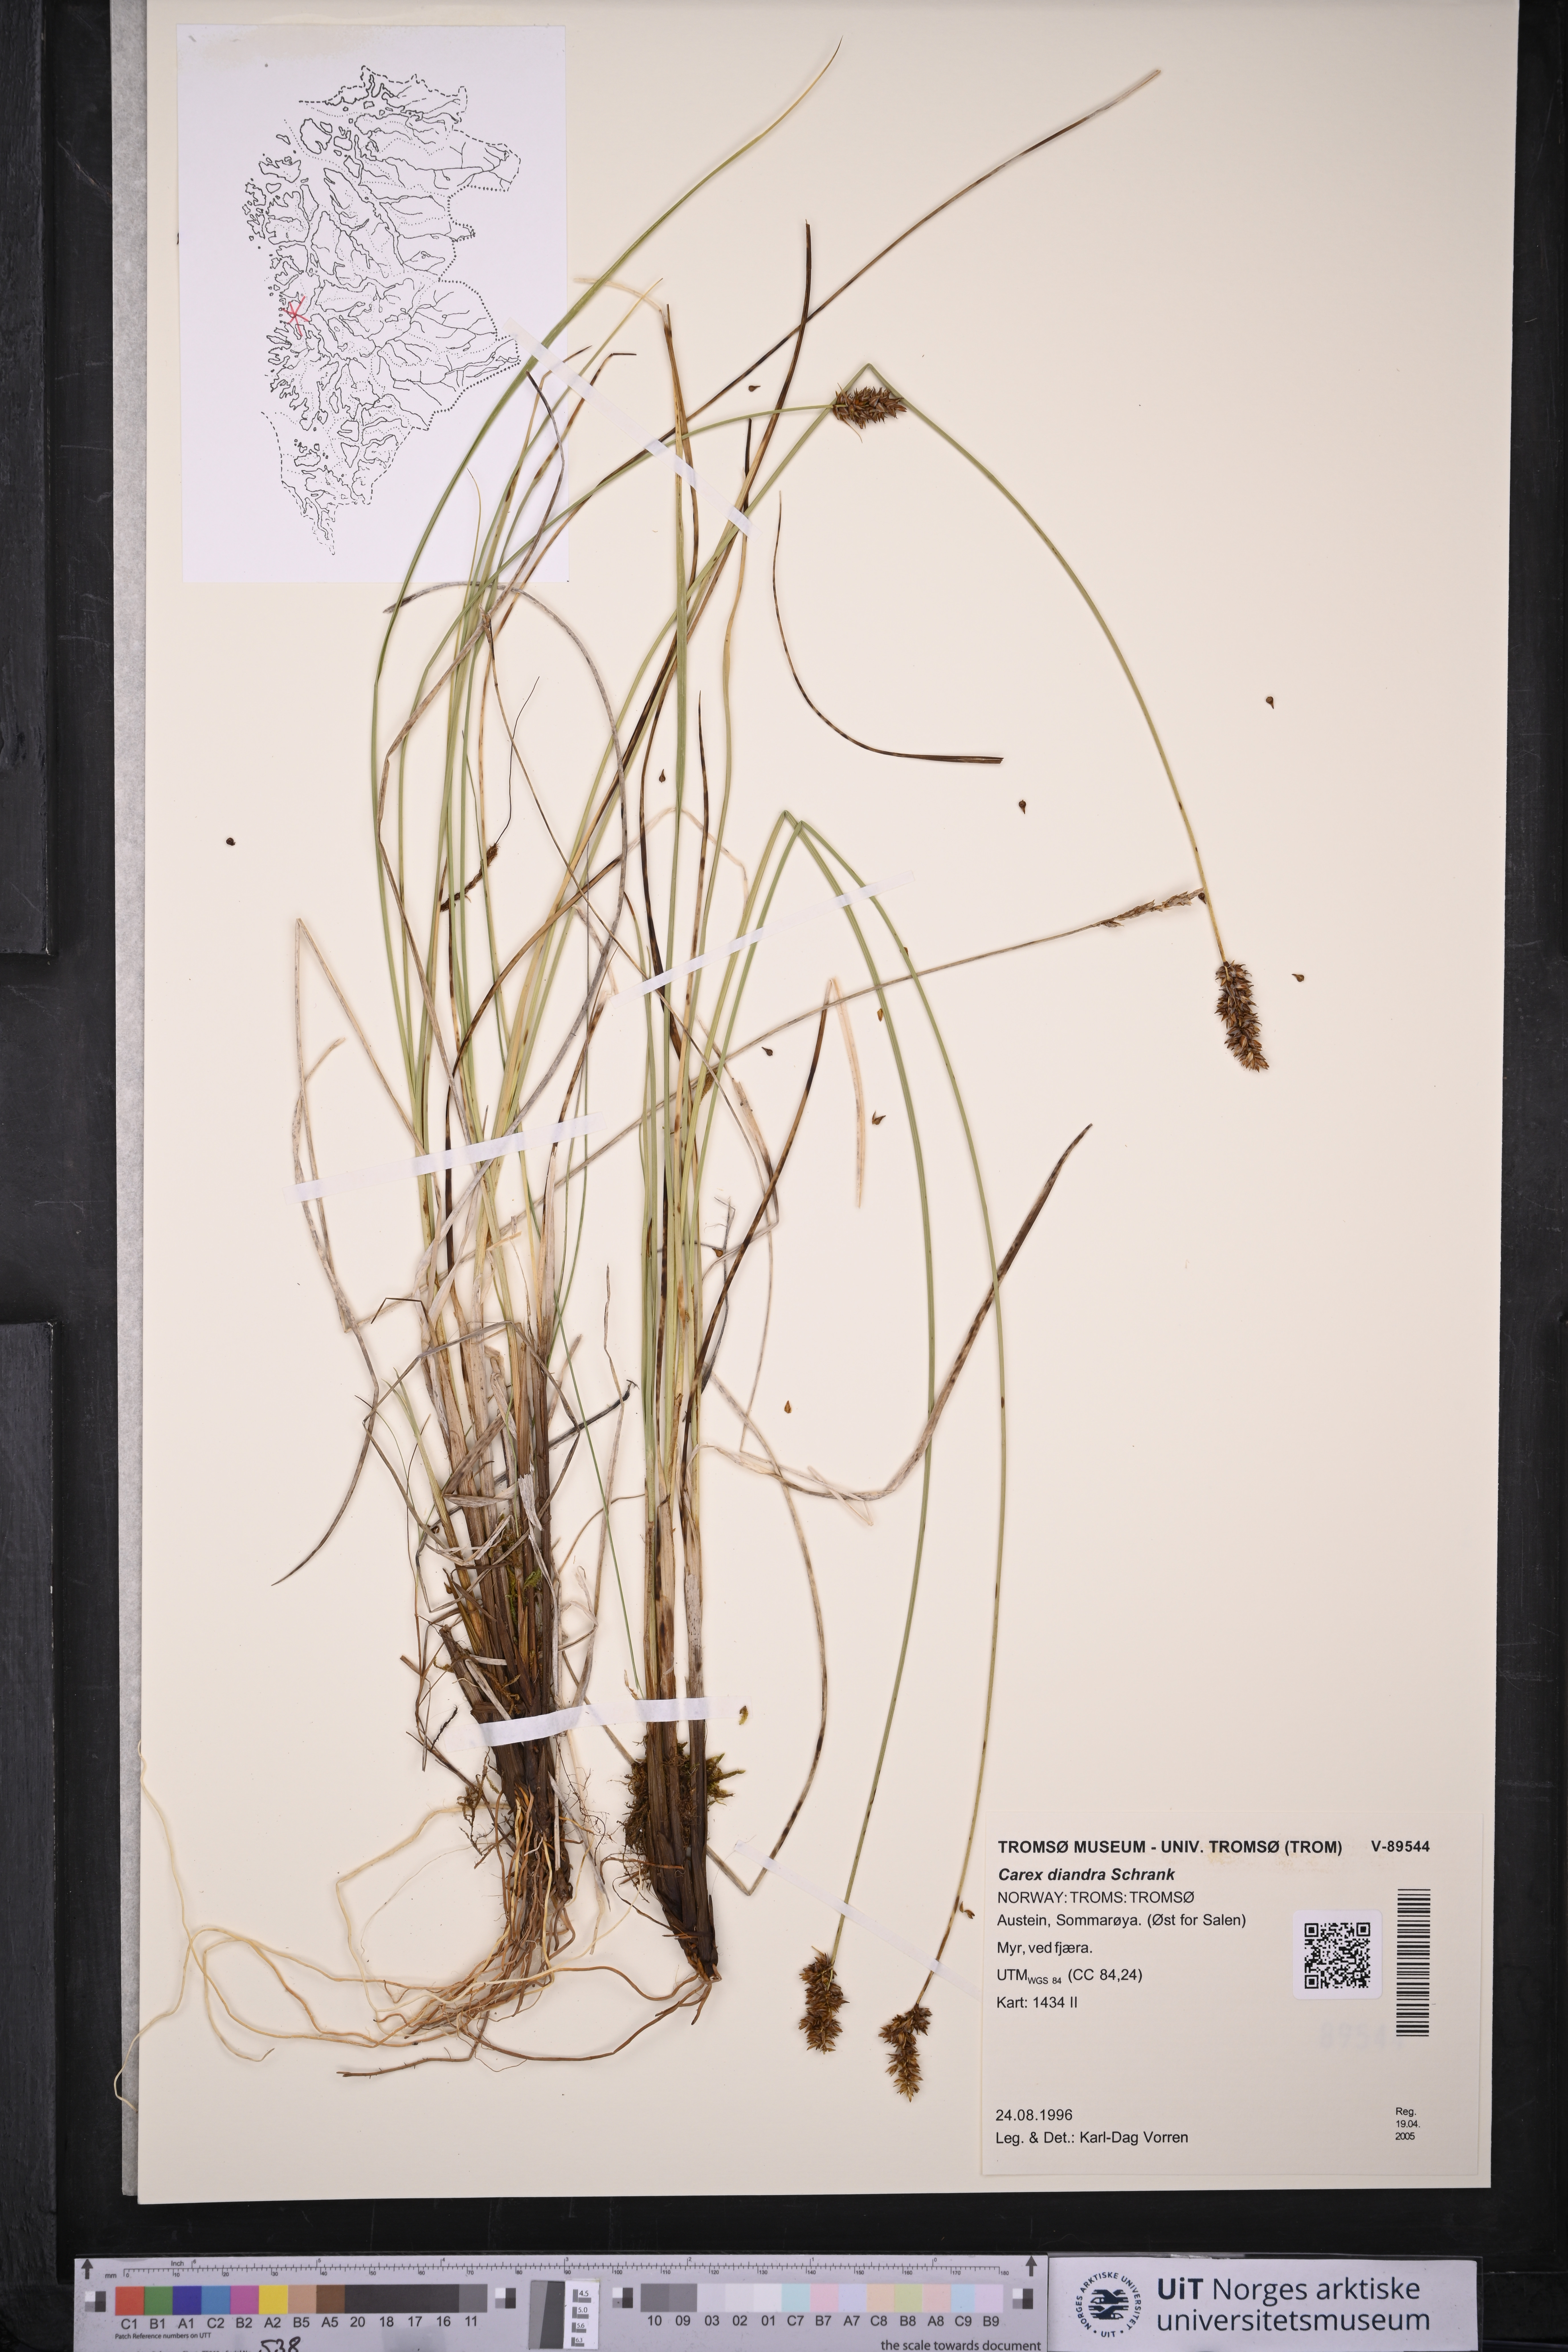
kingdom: Plantae
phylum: Tracheophyta
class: Liliopsida
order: Poales
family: Cyperaceae
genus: Carex
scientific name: Carex diandra
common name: Lesser tussock-sedge
